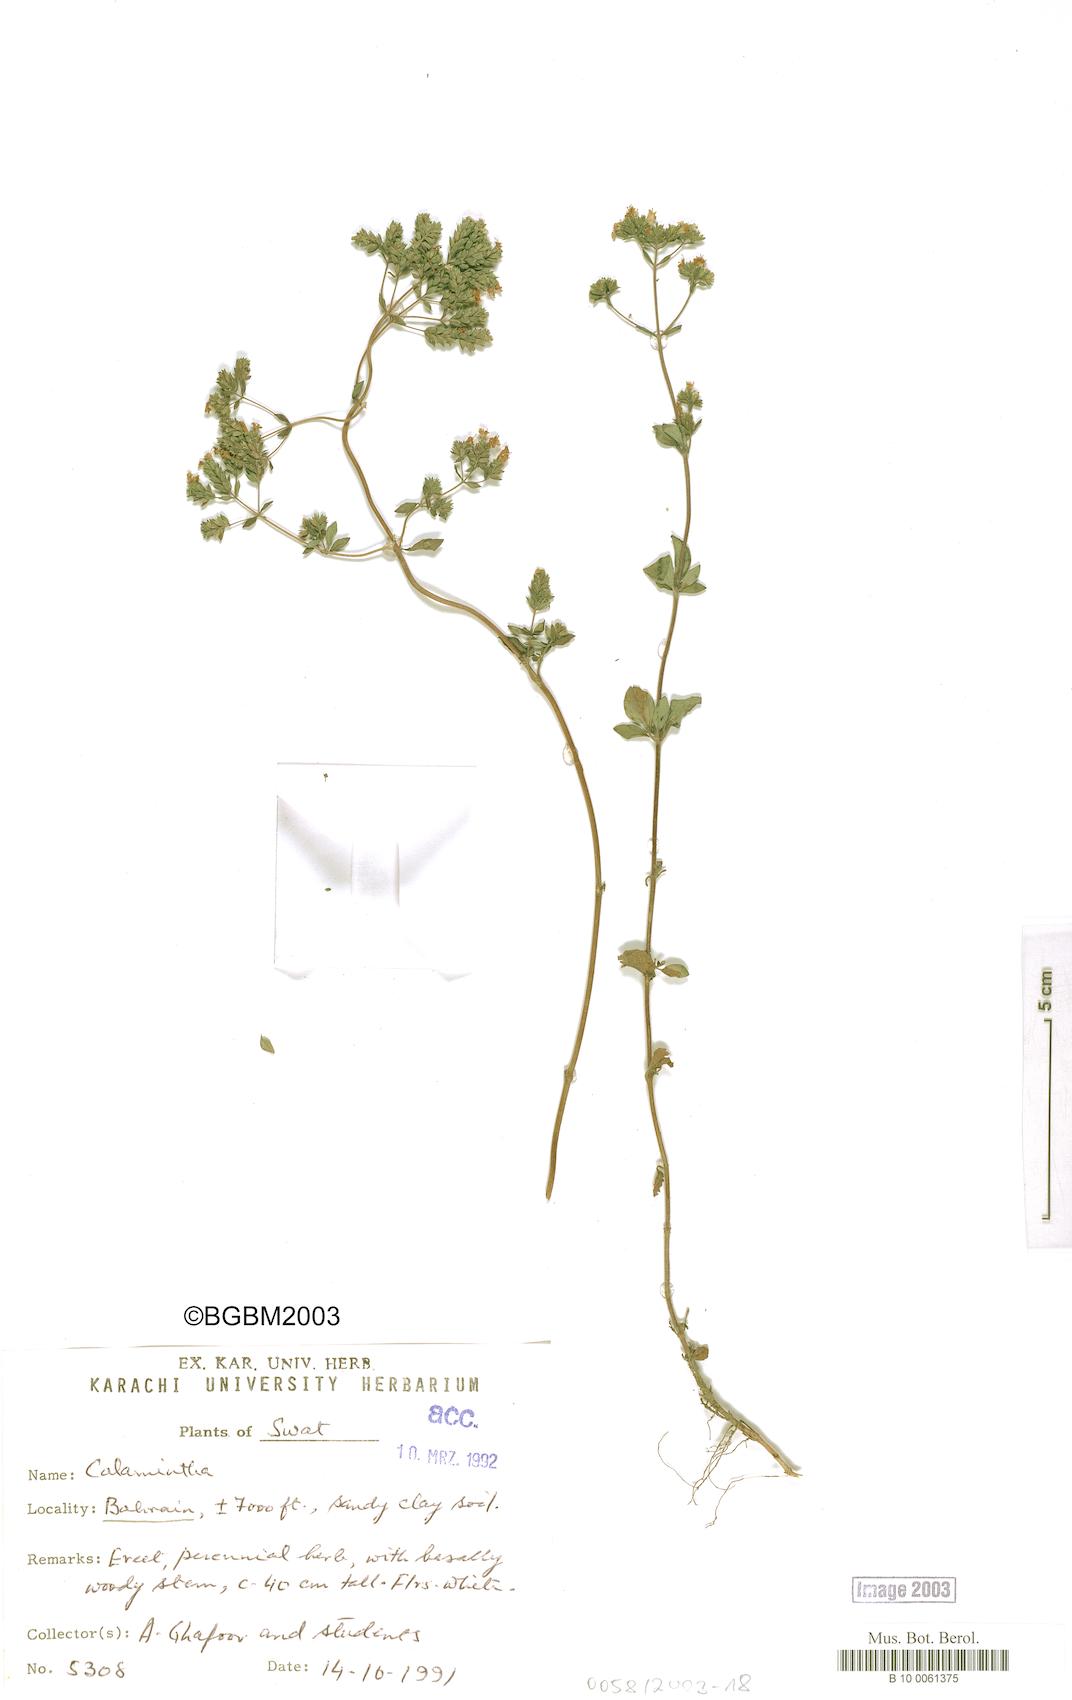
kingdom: Plantae
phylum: Tracheophyta
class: Magnoliopsida
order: Lamiales
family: Lamiaceae
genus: Origanum
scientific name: Origanum vulgare
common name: Wild marjoram
